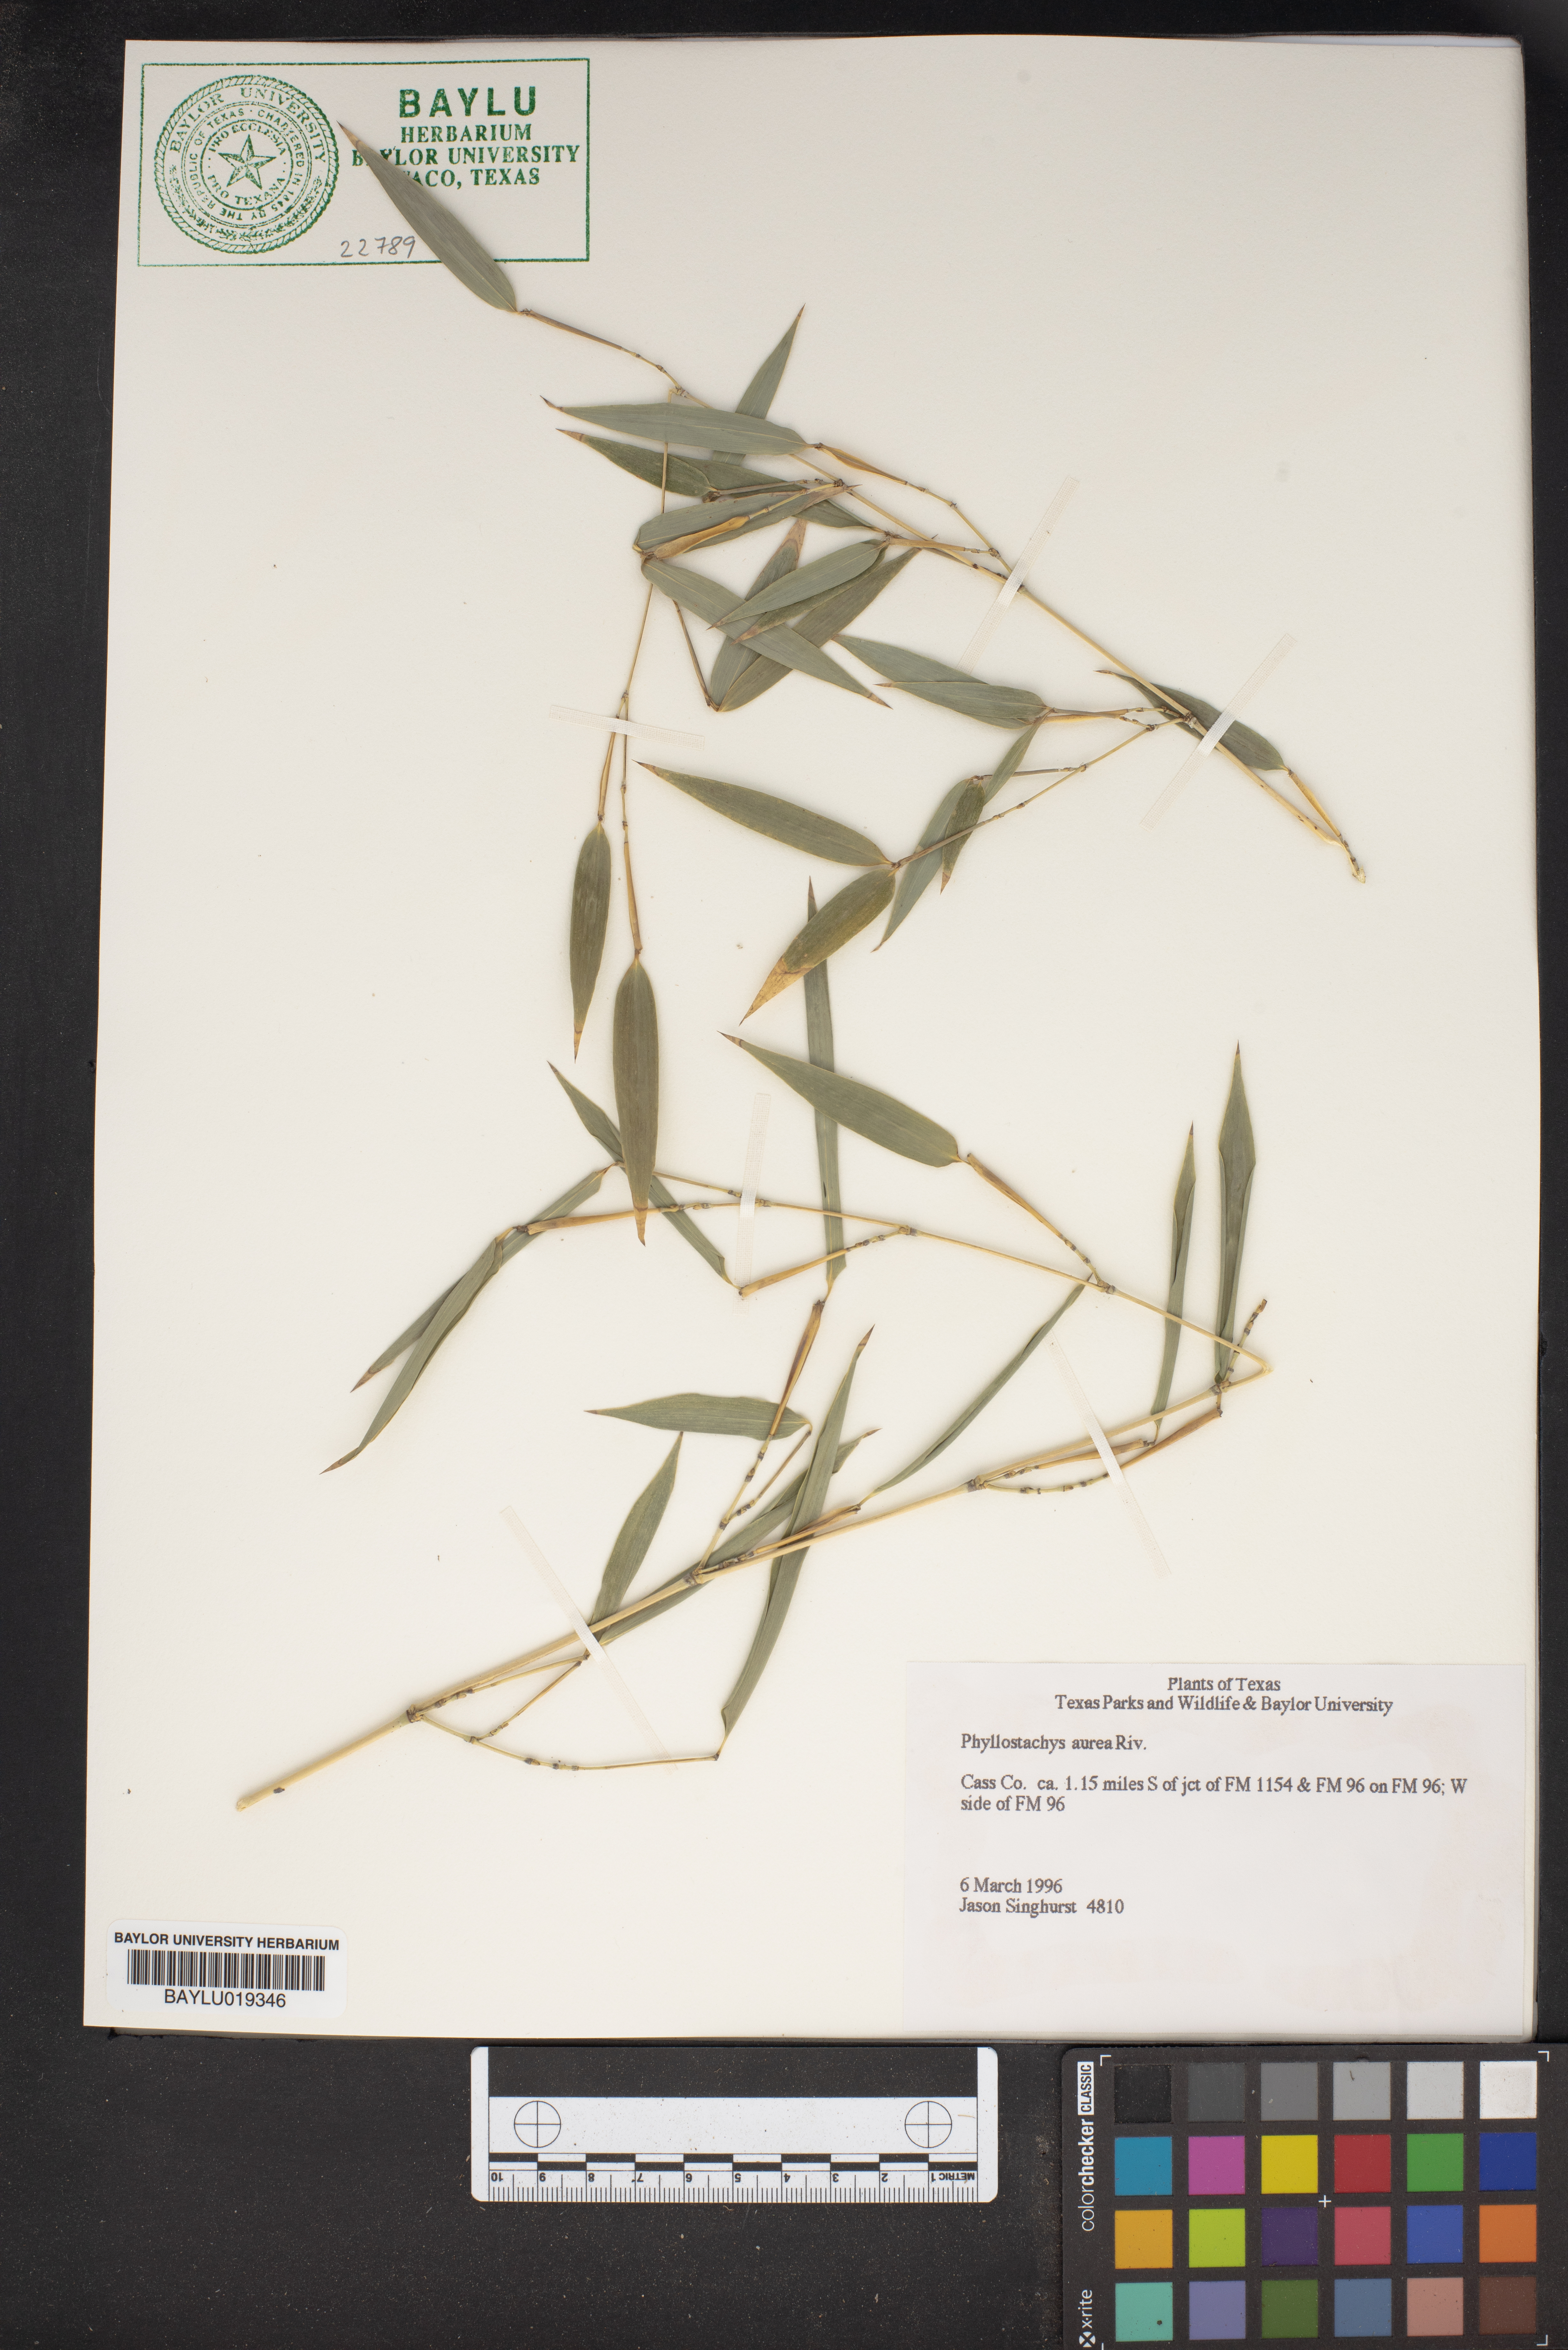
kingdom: Plantae
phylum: Tracheophyta
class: Liliopsida
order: Poales
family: Poaceae
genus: Phyllostachys
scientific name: Phyllostachys aurea
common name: Golden bamboo
